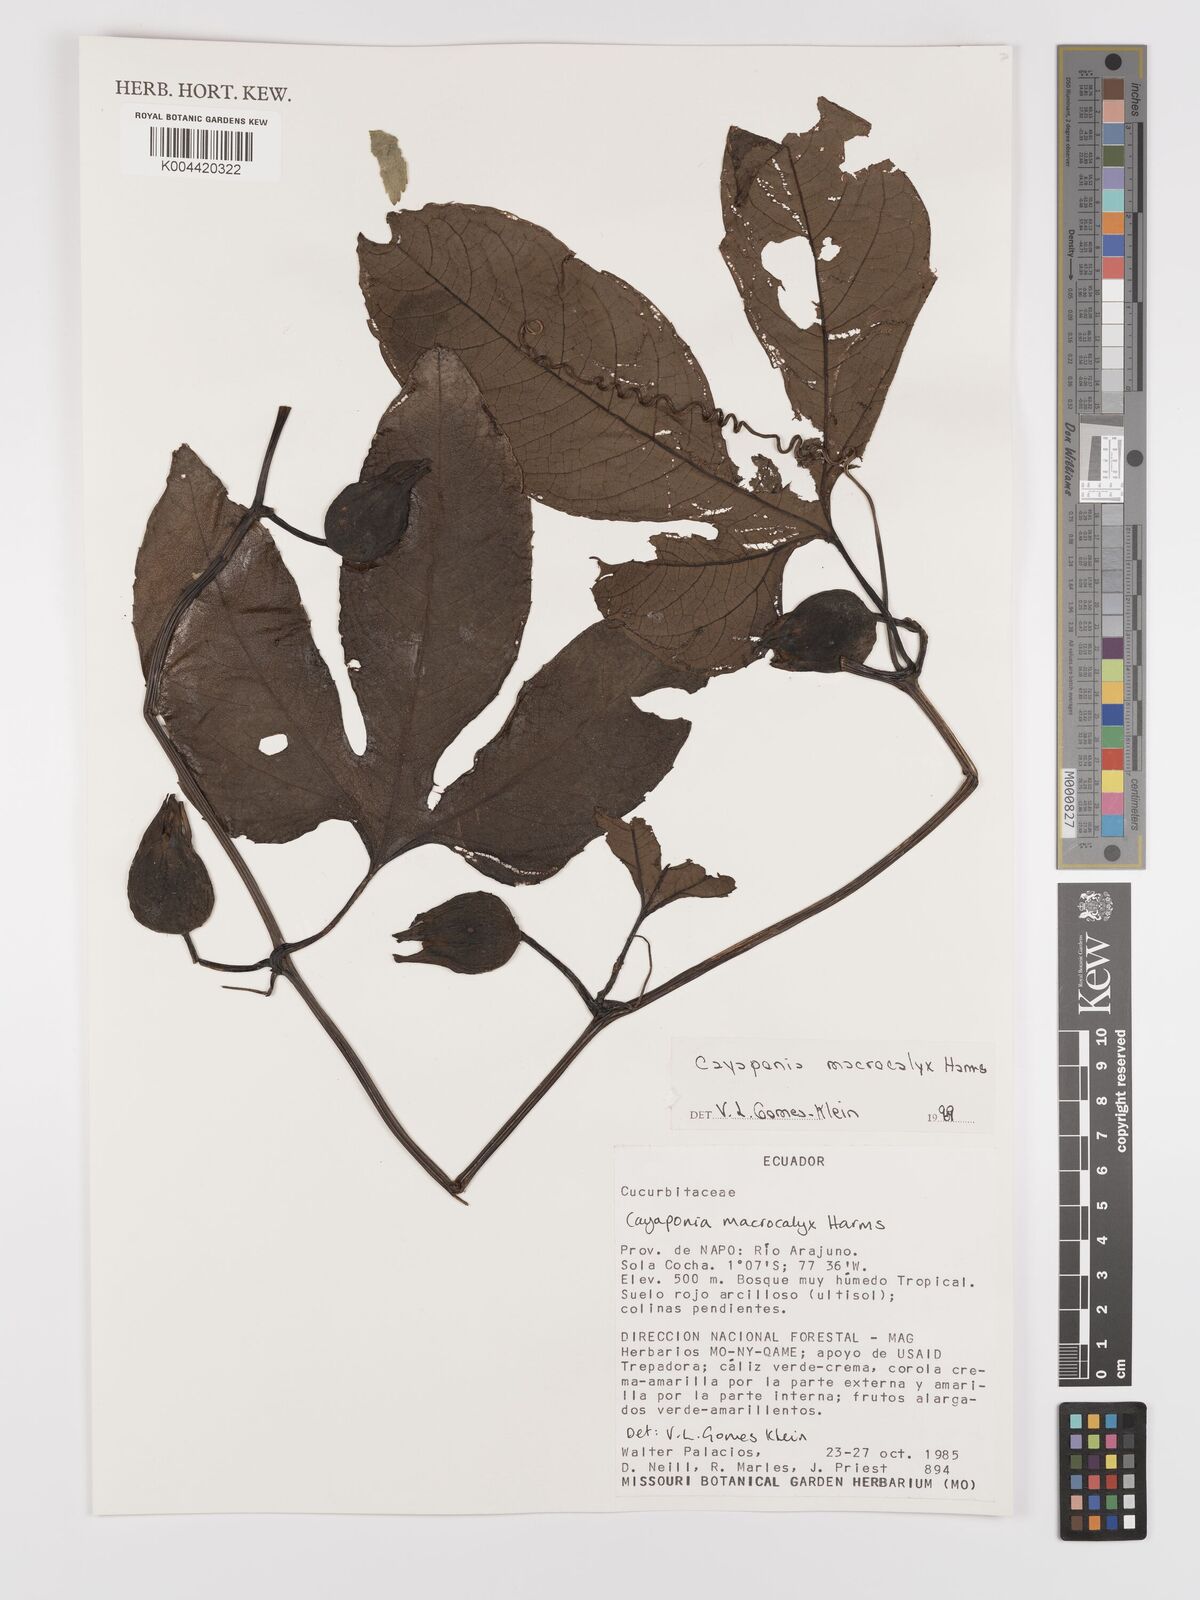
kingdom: Plantae
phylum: Tracheophyta
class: Magnoliopsida
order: Cucurbitales
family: Cucurbitaceae
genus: Cayaponia
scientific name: Cayaponia macrocalyx
